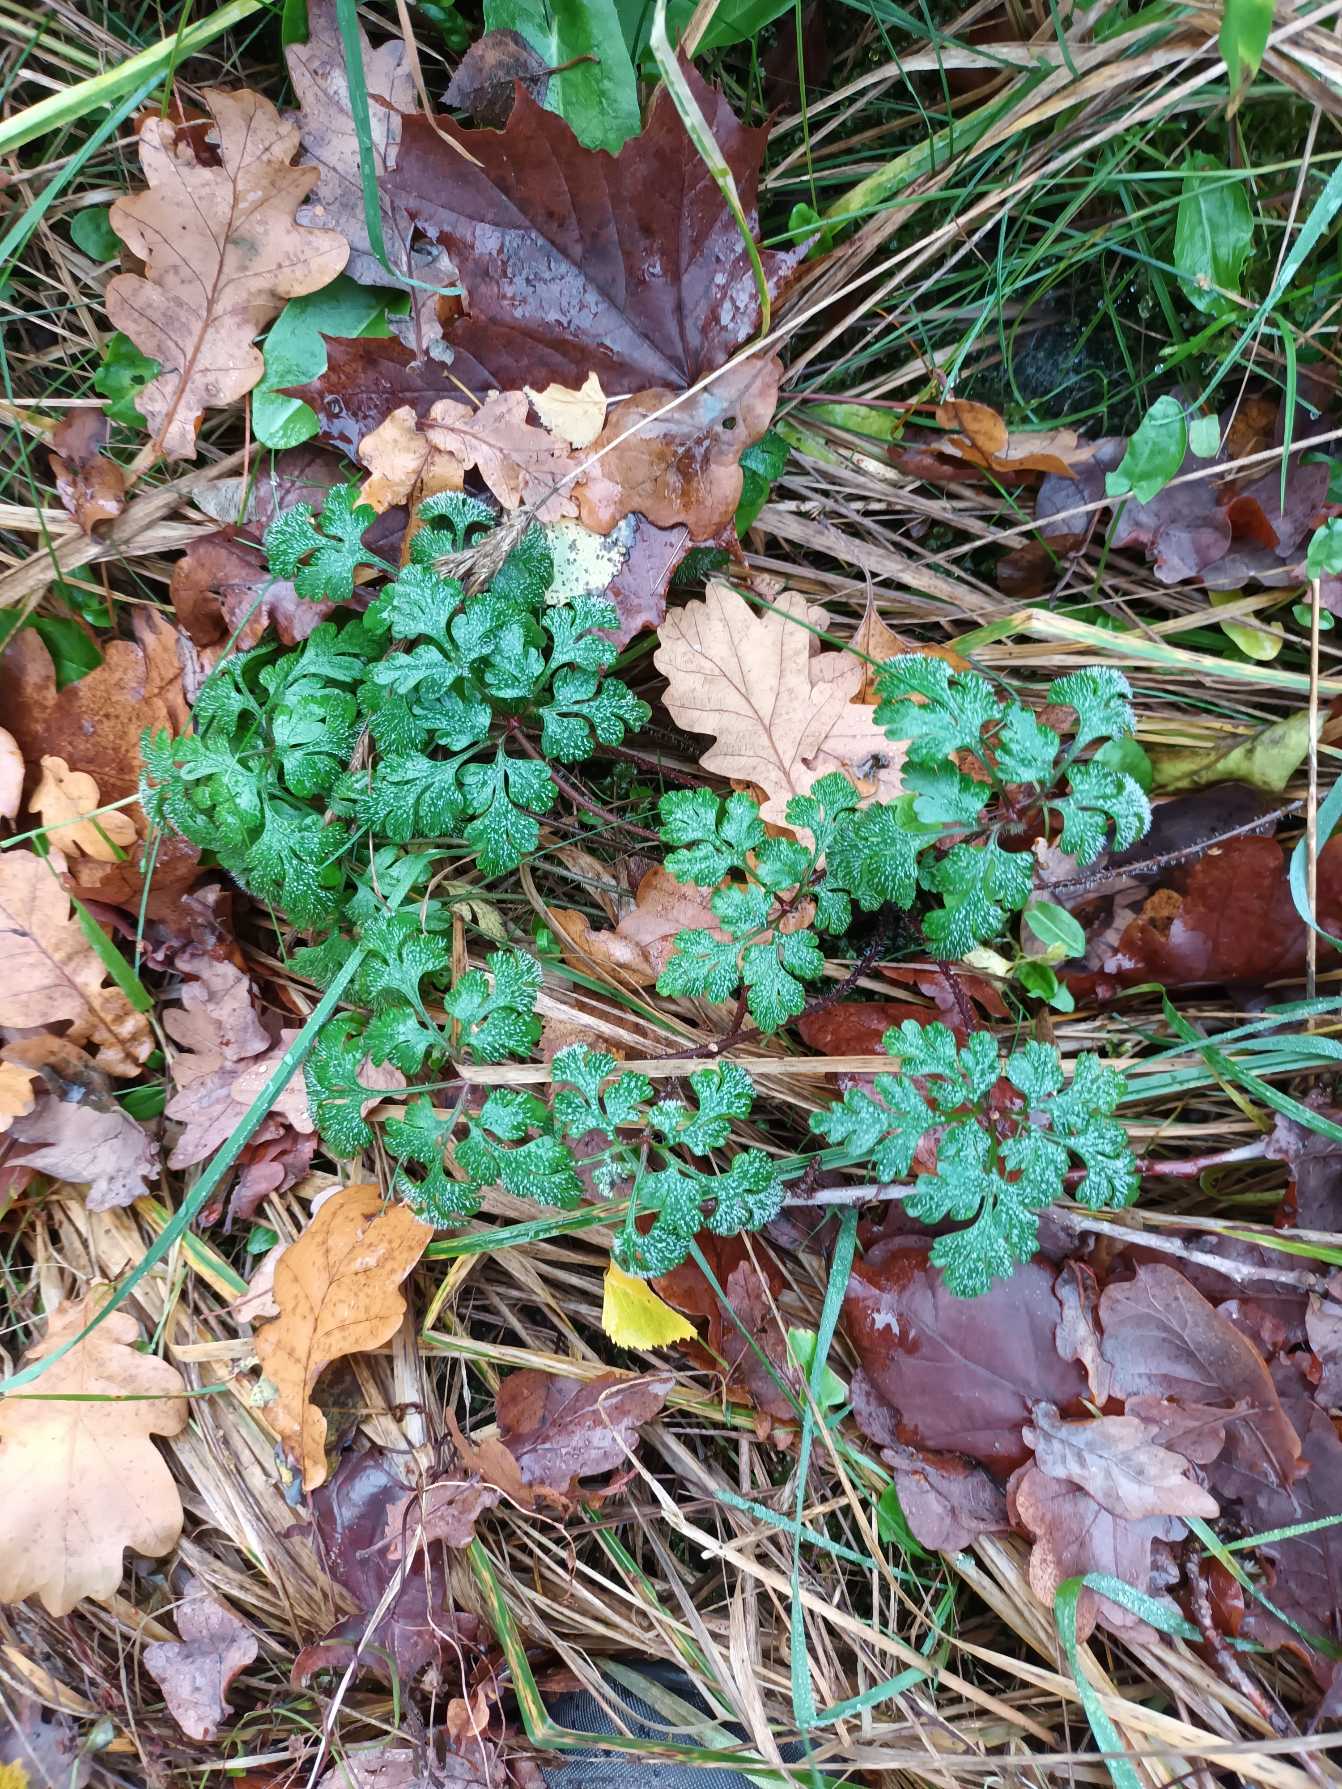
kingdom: Plantae
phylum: Tracheophyta
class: Magnoliopsida
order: Geraniales
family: Geraniaceae
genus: Geranium
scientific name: Geranium robertianum
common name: Stinkende storkenæb
